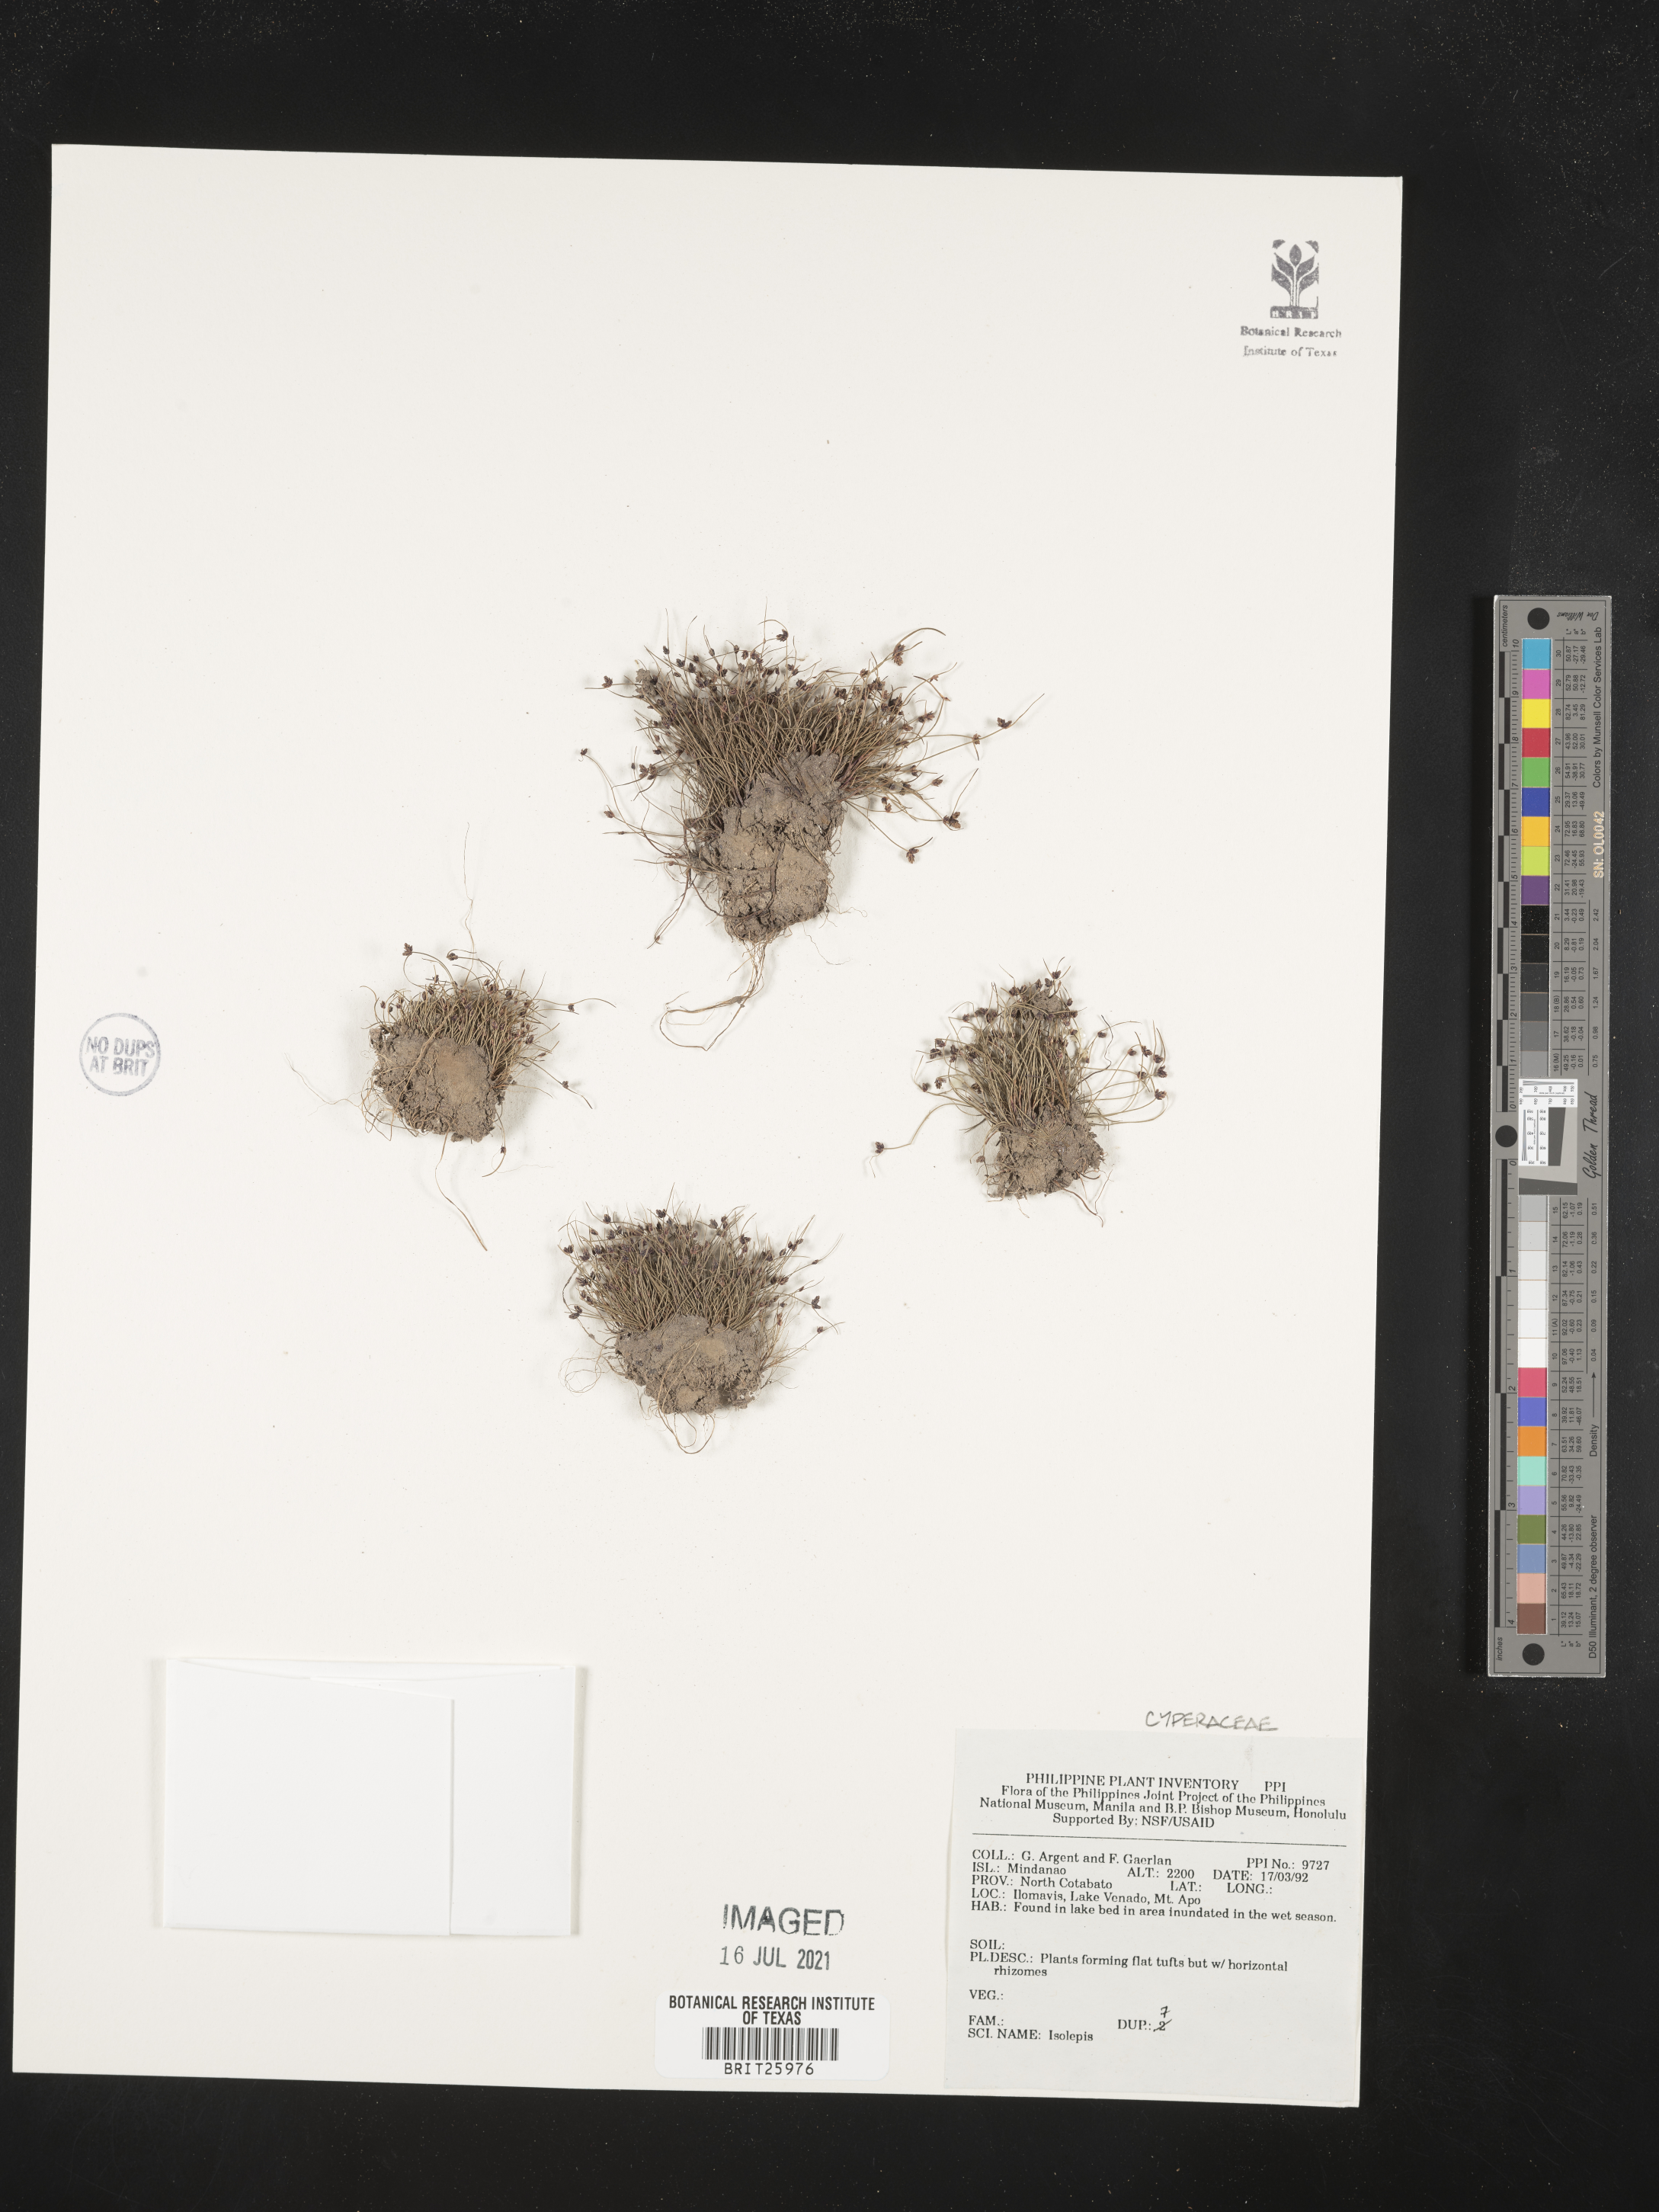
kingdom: Plantae
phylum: Tracheophyta
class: Liliopsida
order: Poales
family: Cyperaceae
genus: Isolepis
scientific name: Isolepis
